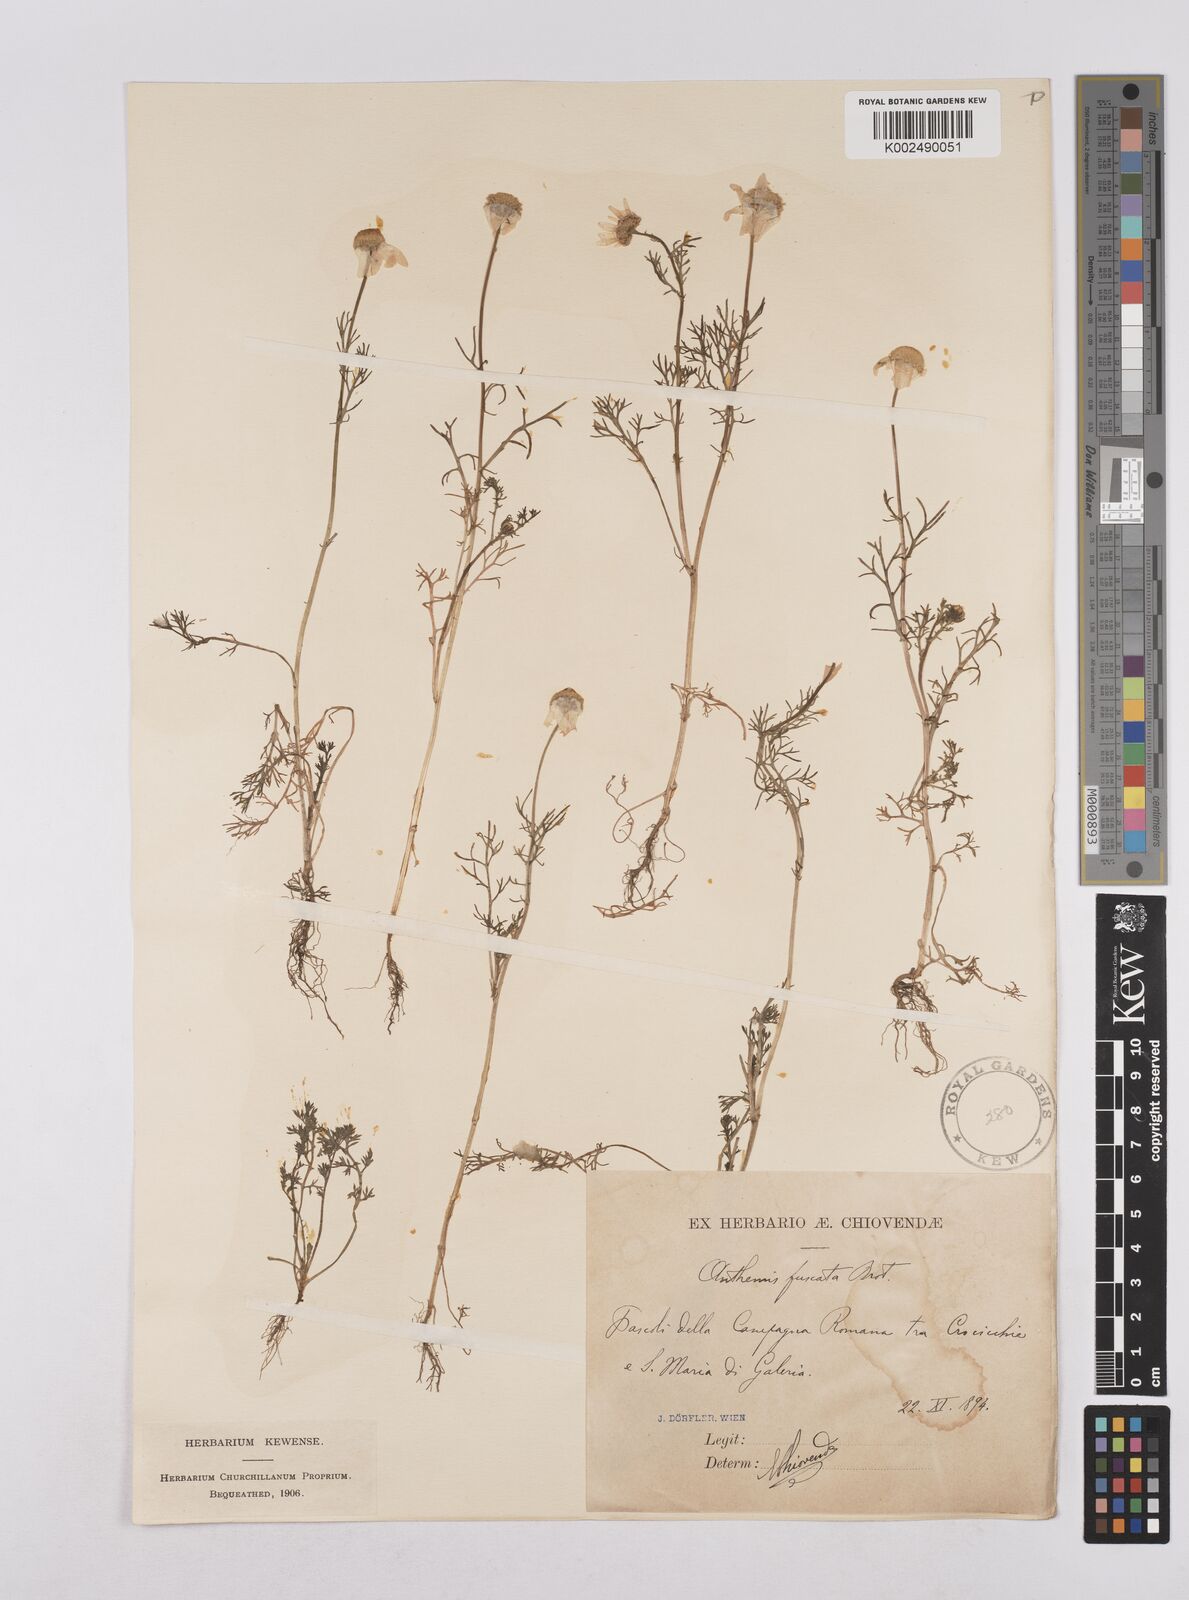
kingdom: Plantae
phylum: Tracheophyta
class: Magnoliopsida
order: Asterales
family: Asteraceae
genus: Chamaemelum
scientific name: Chamaemelum fuscatum
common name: Chamomile
